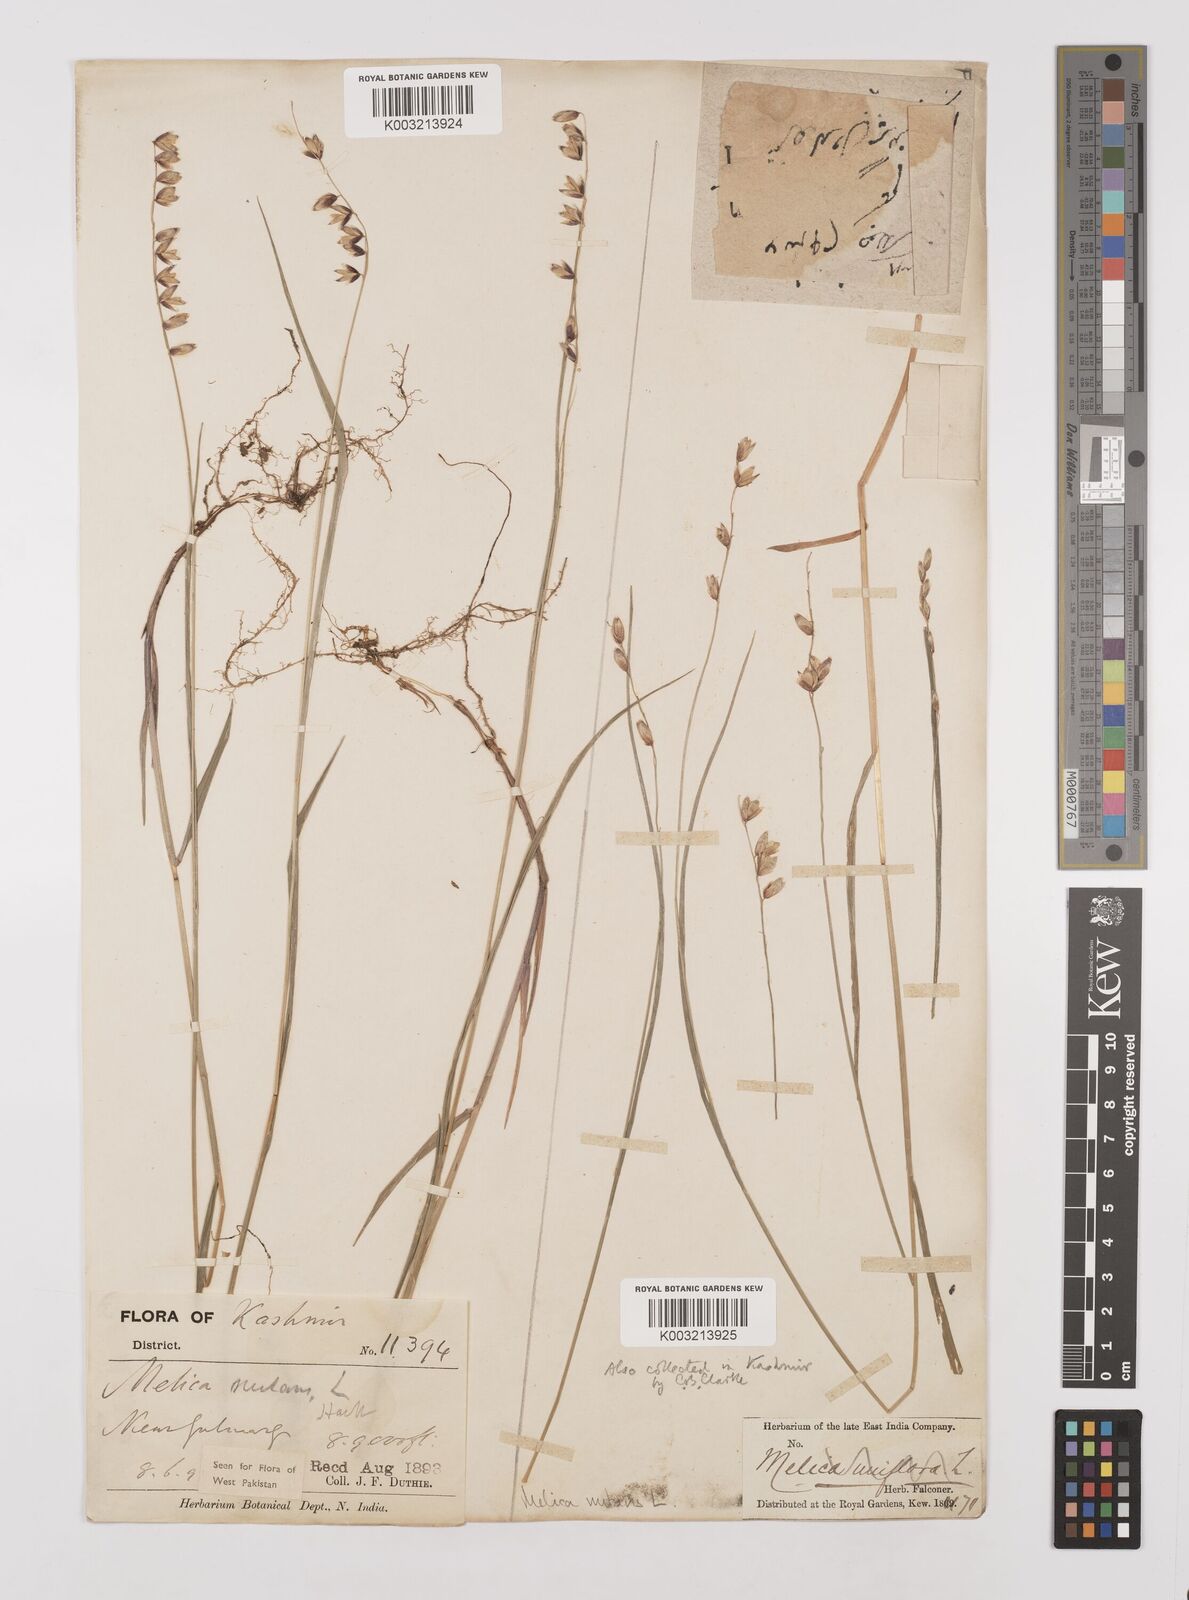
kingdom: Plantae
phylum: Tracheophyta
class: Liliopsida
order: Poales
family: Poaceae
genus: Melica
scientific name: Melica nutans
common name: Mountain melick
